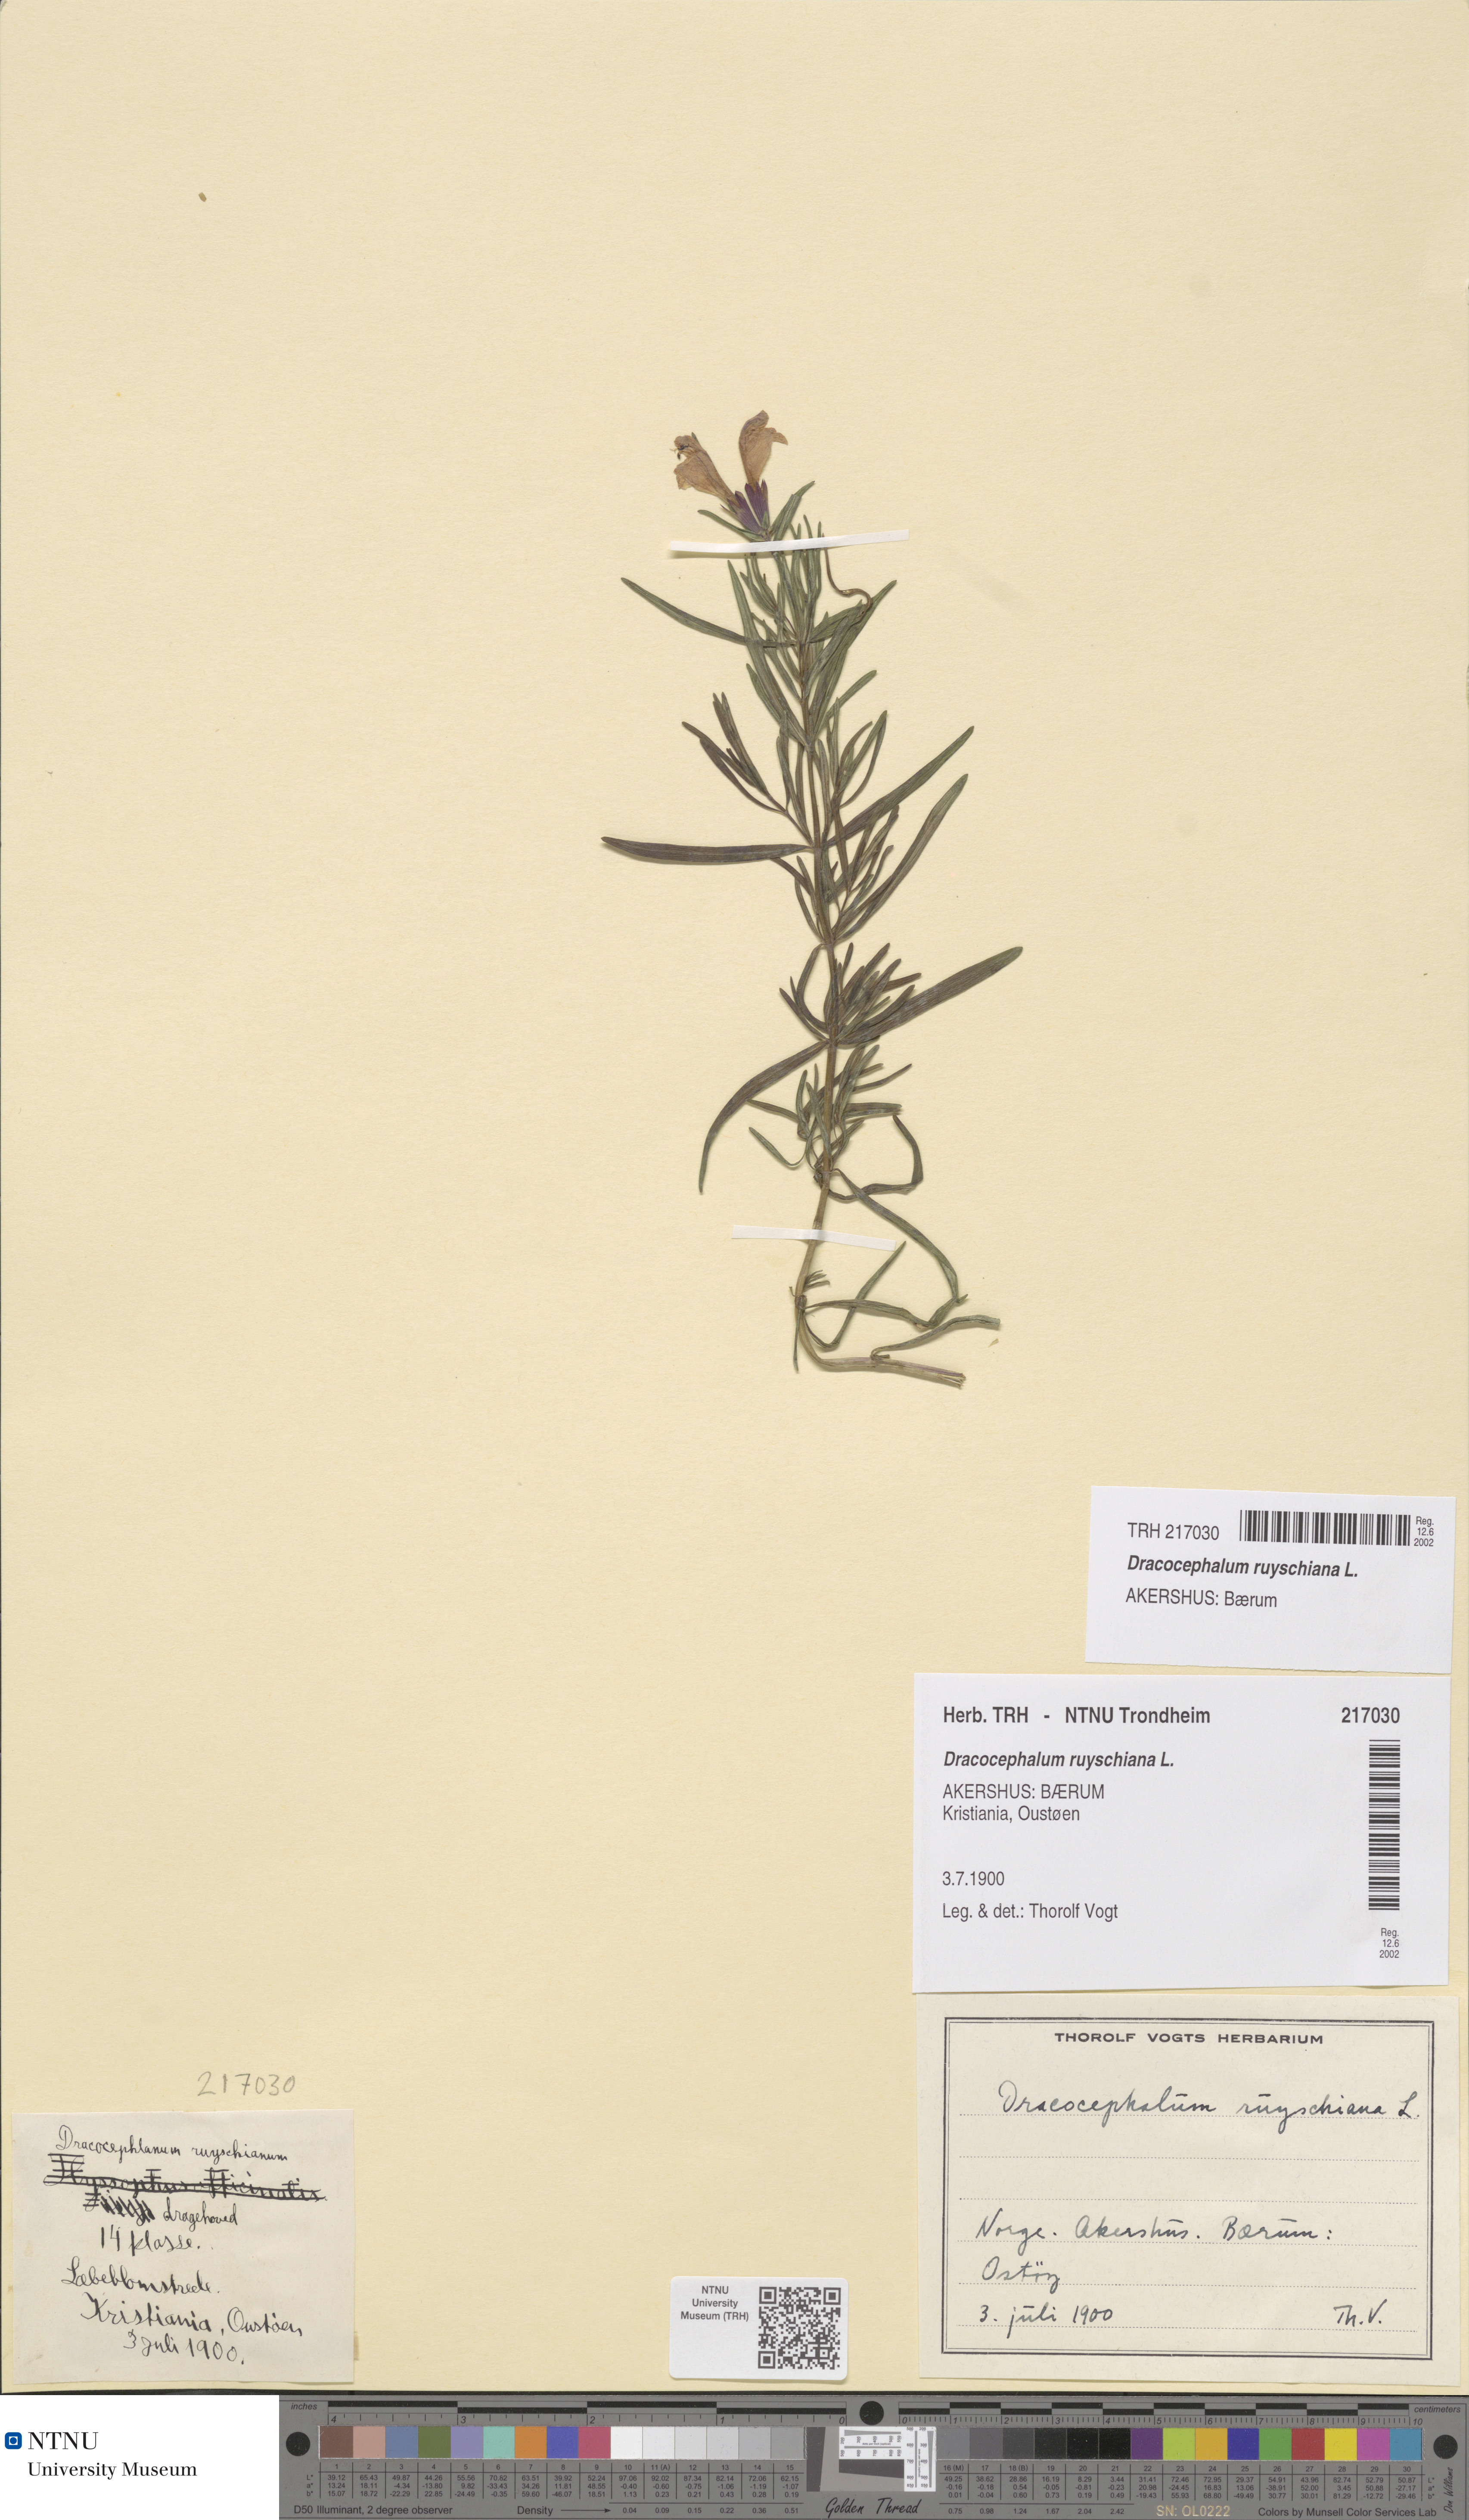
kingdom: Plantae
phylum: Tracheophyta
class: Magnoliopsida
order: Lamiales
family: Lamiaceae
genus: Dracocephalum
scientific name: Dracocephalum ruyschiana
